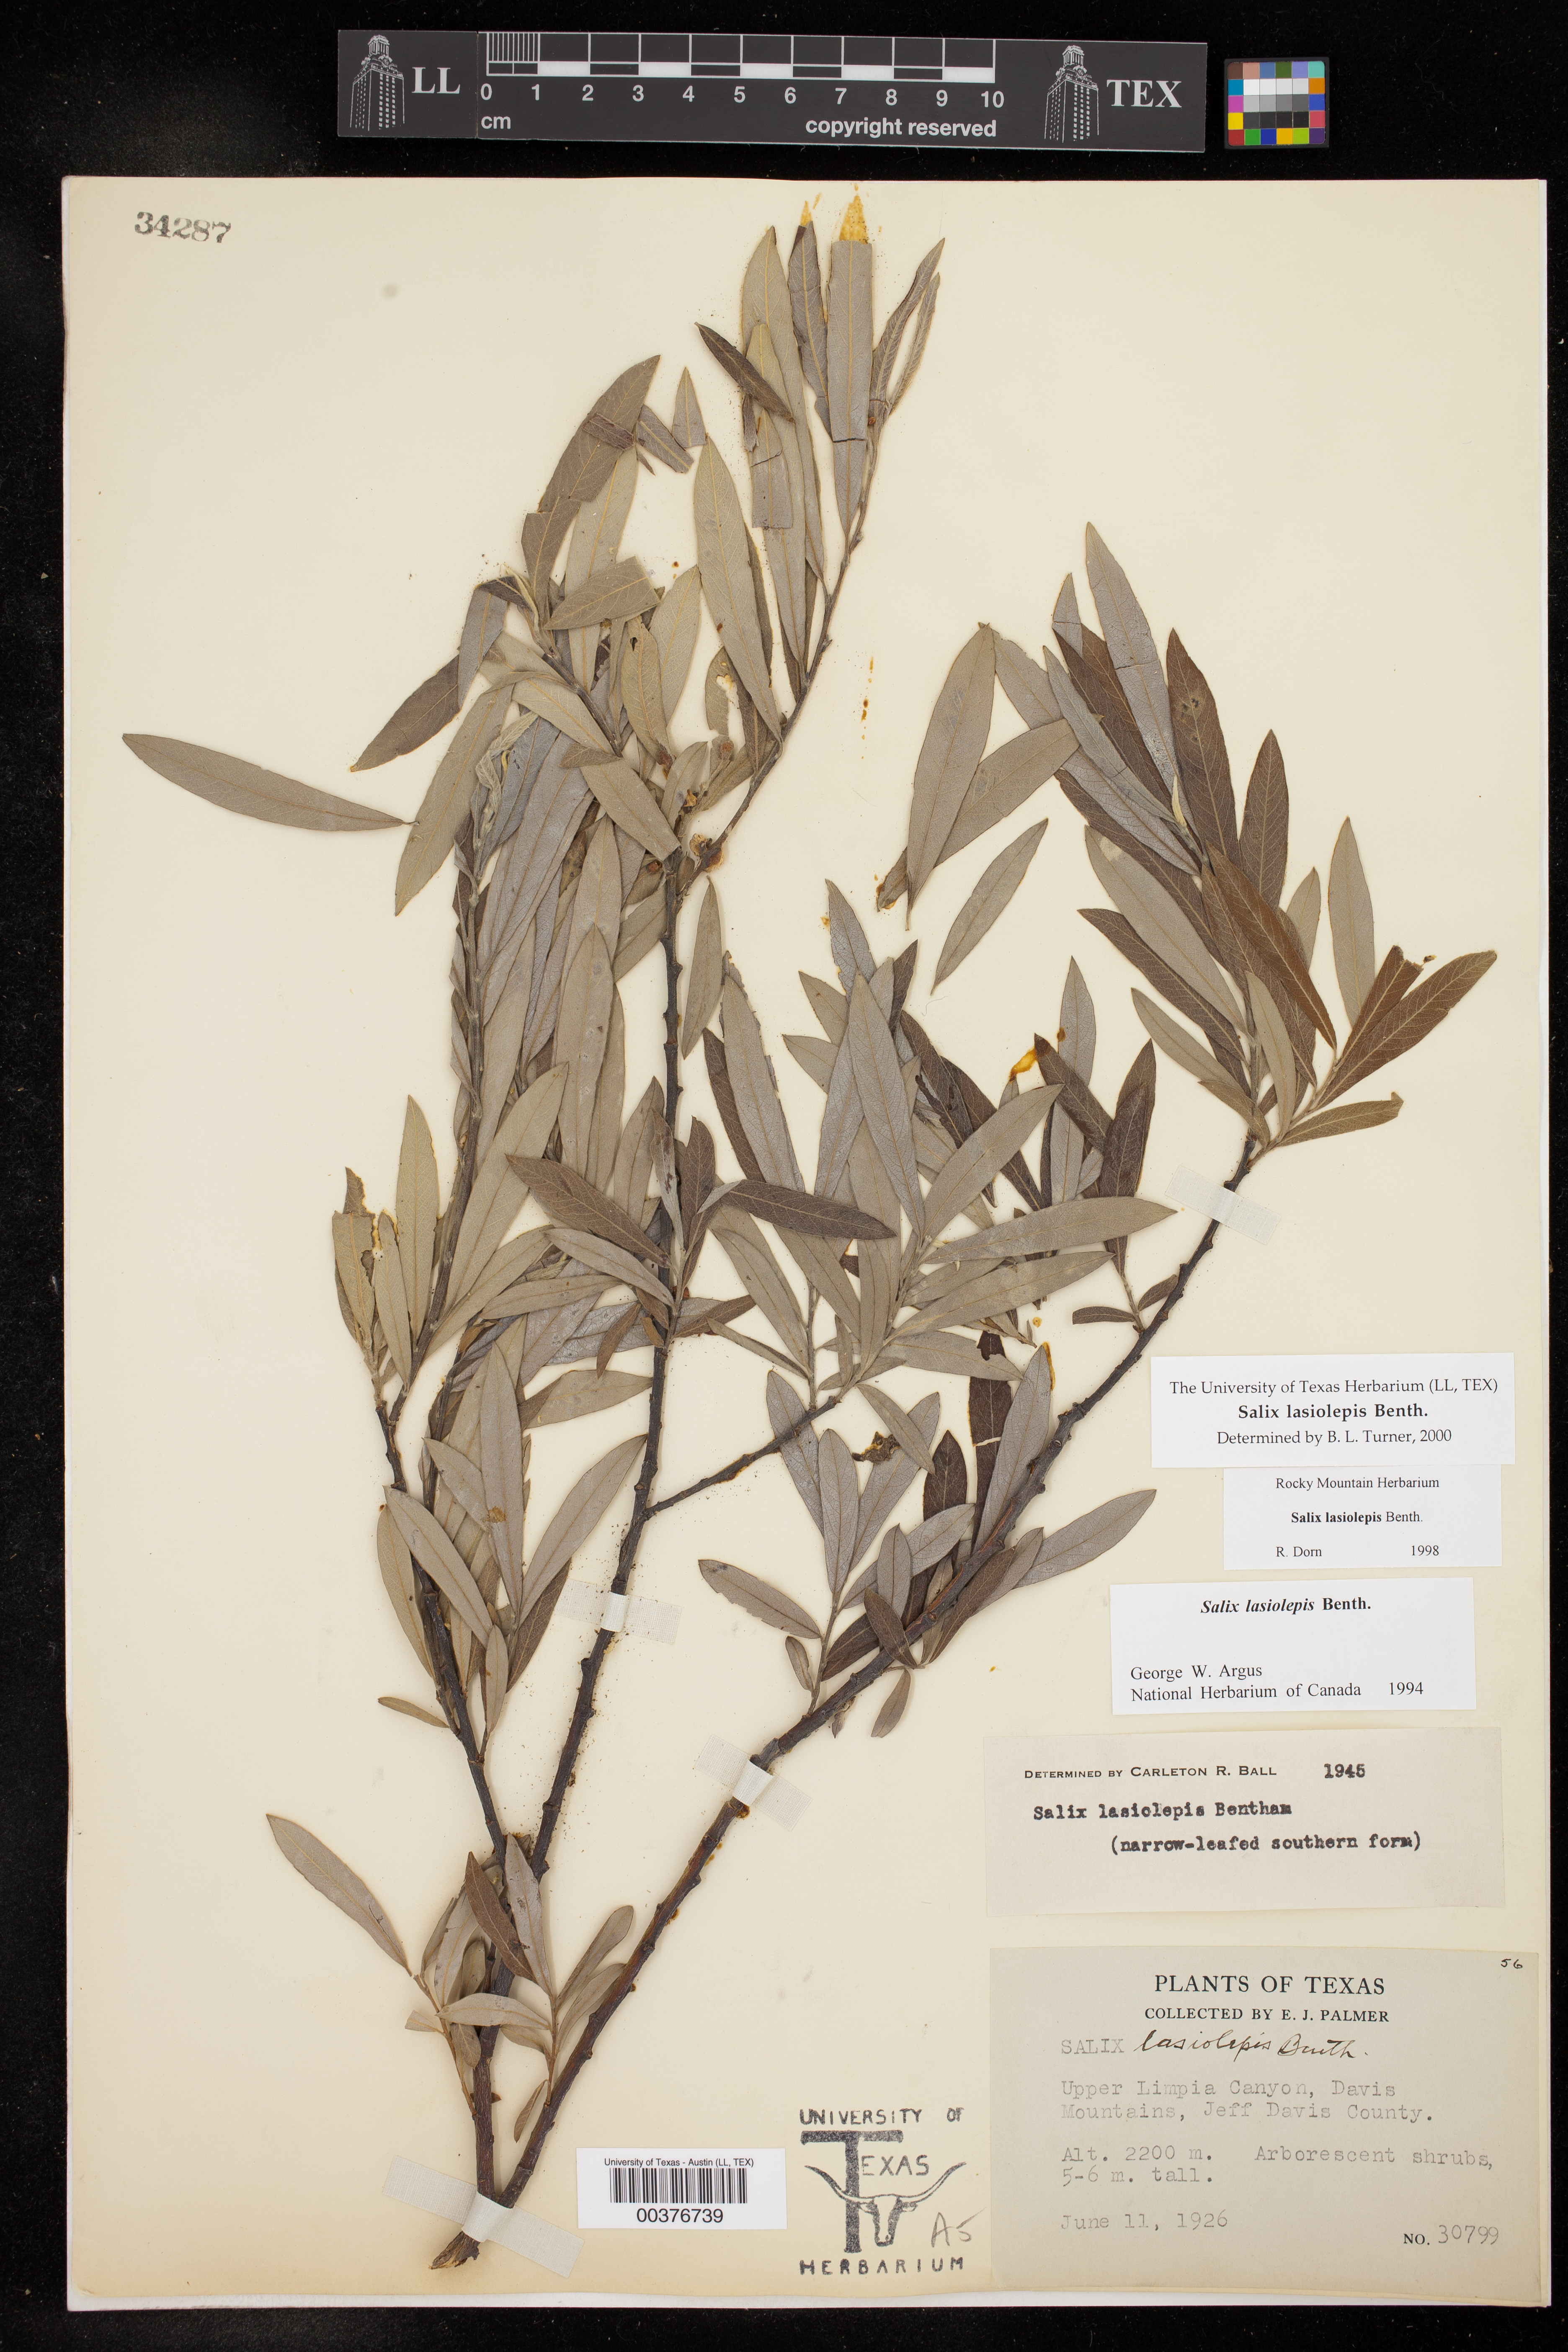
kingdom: Plantae
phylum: Tracheophyta
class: Magnoliopsida
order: Malpighiales
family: Salicaceae
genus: Salix
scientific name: Salix lasiolepis
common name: Arroyo willow
